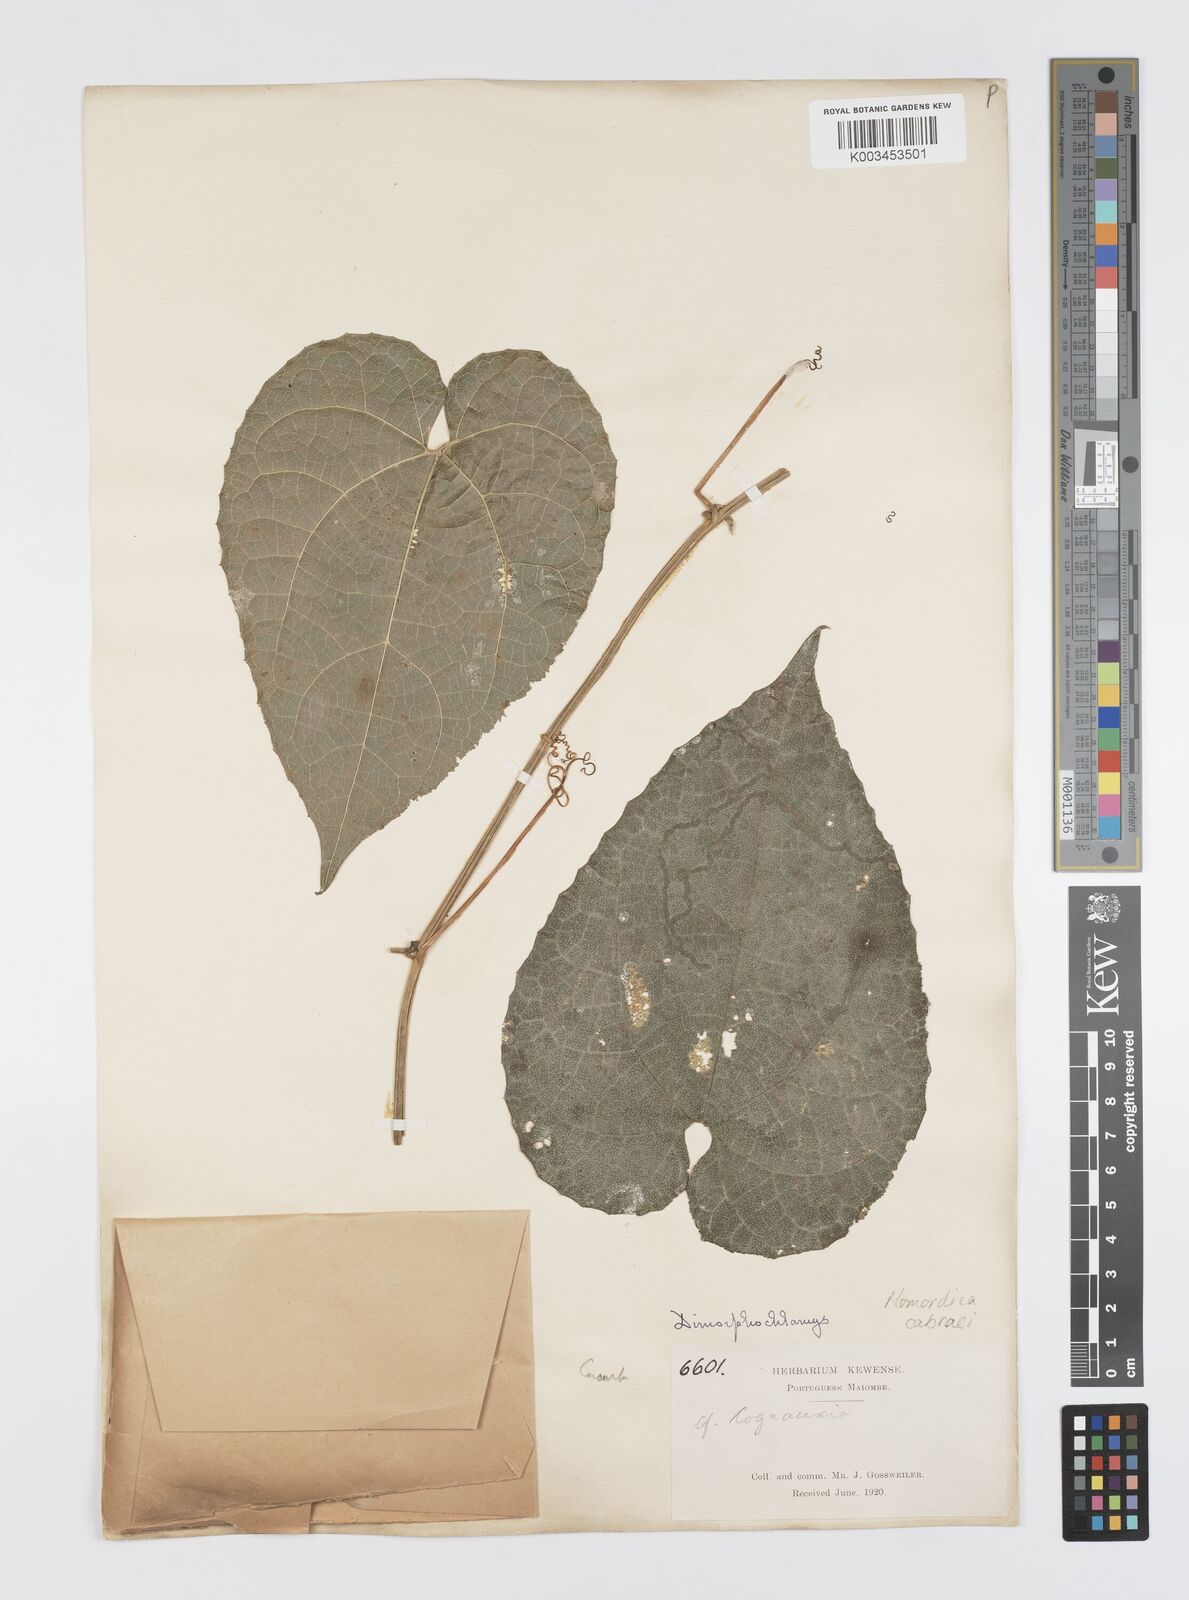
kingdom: Plantae
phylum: Tracheophyta
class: Magnoliopsida
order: Cucurbitales
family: Cucurbitaceae
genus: Momordica
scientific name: Momordica cabrae
